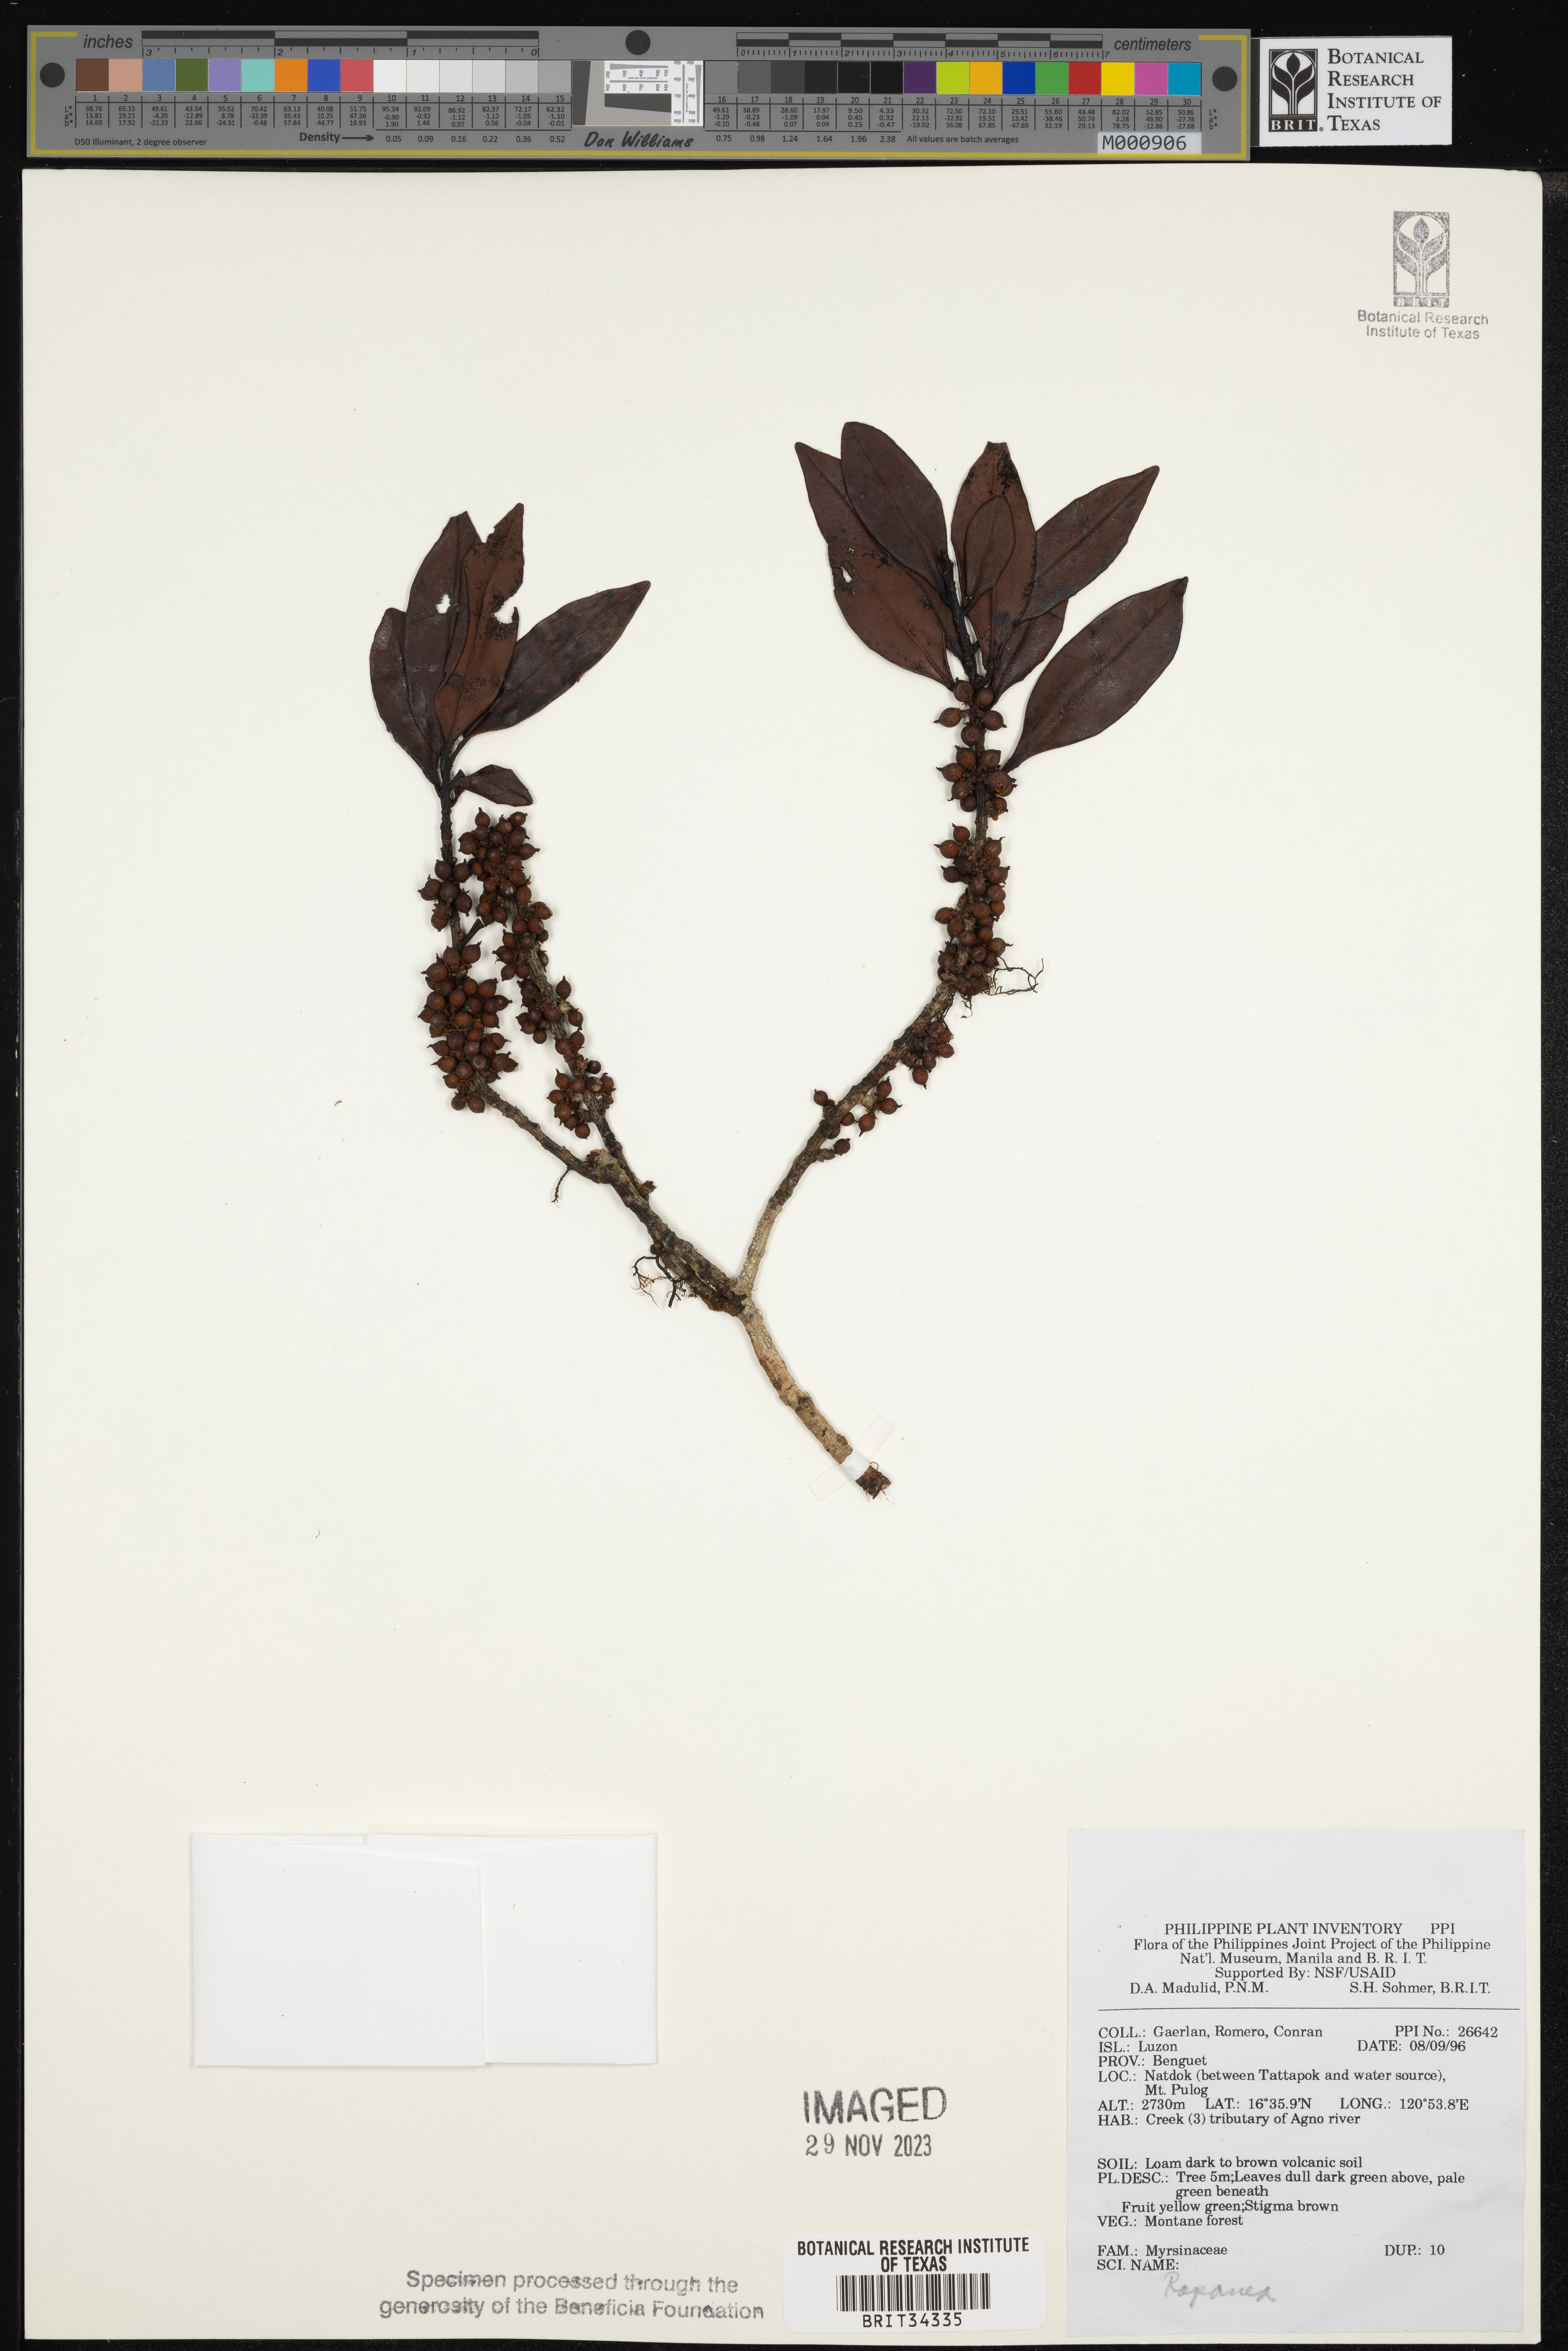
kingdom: Plantae
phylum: Tracheophyta
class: Magnoliopsida
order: Ericales
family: Primulaceae
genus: Myrsine
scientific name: Myrsine
